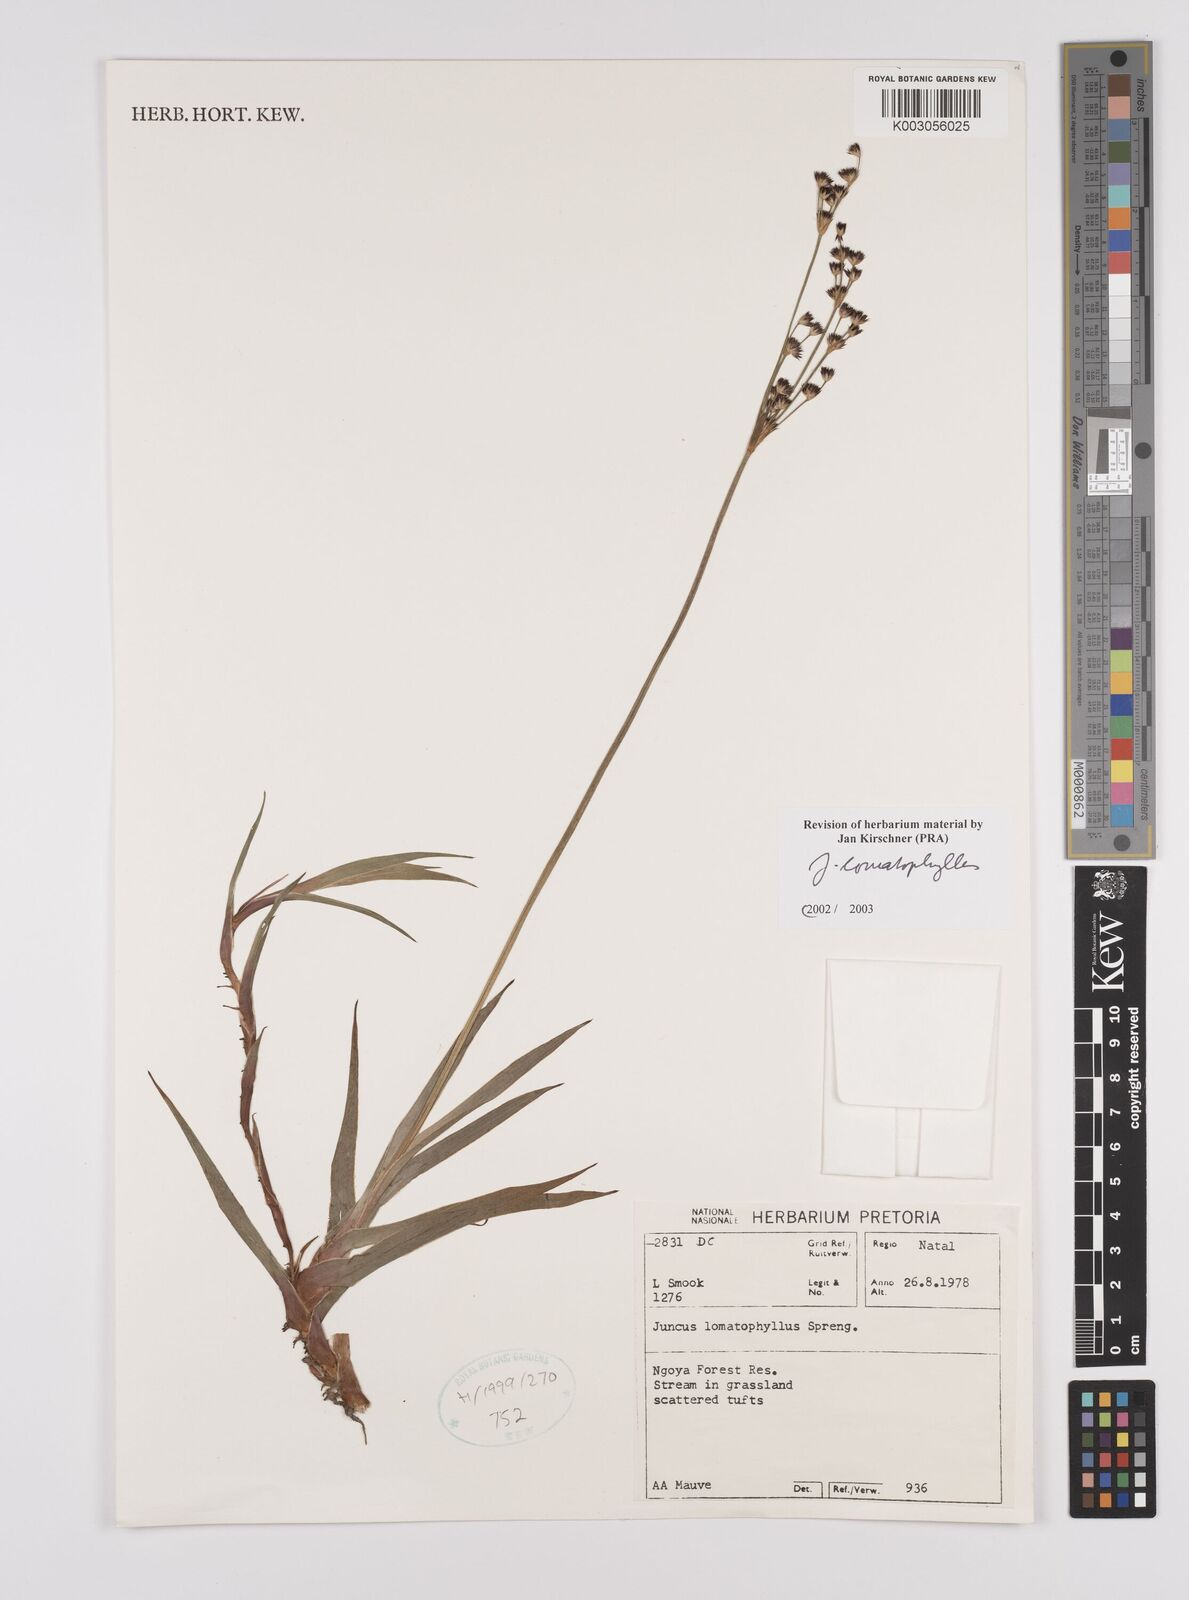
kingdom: Plantae
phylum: Tracheophyta
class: Liliopsida
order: Poales
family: Juncaceae
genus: Juncus
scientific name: Juncus lomatophyllus
